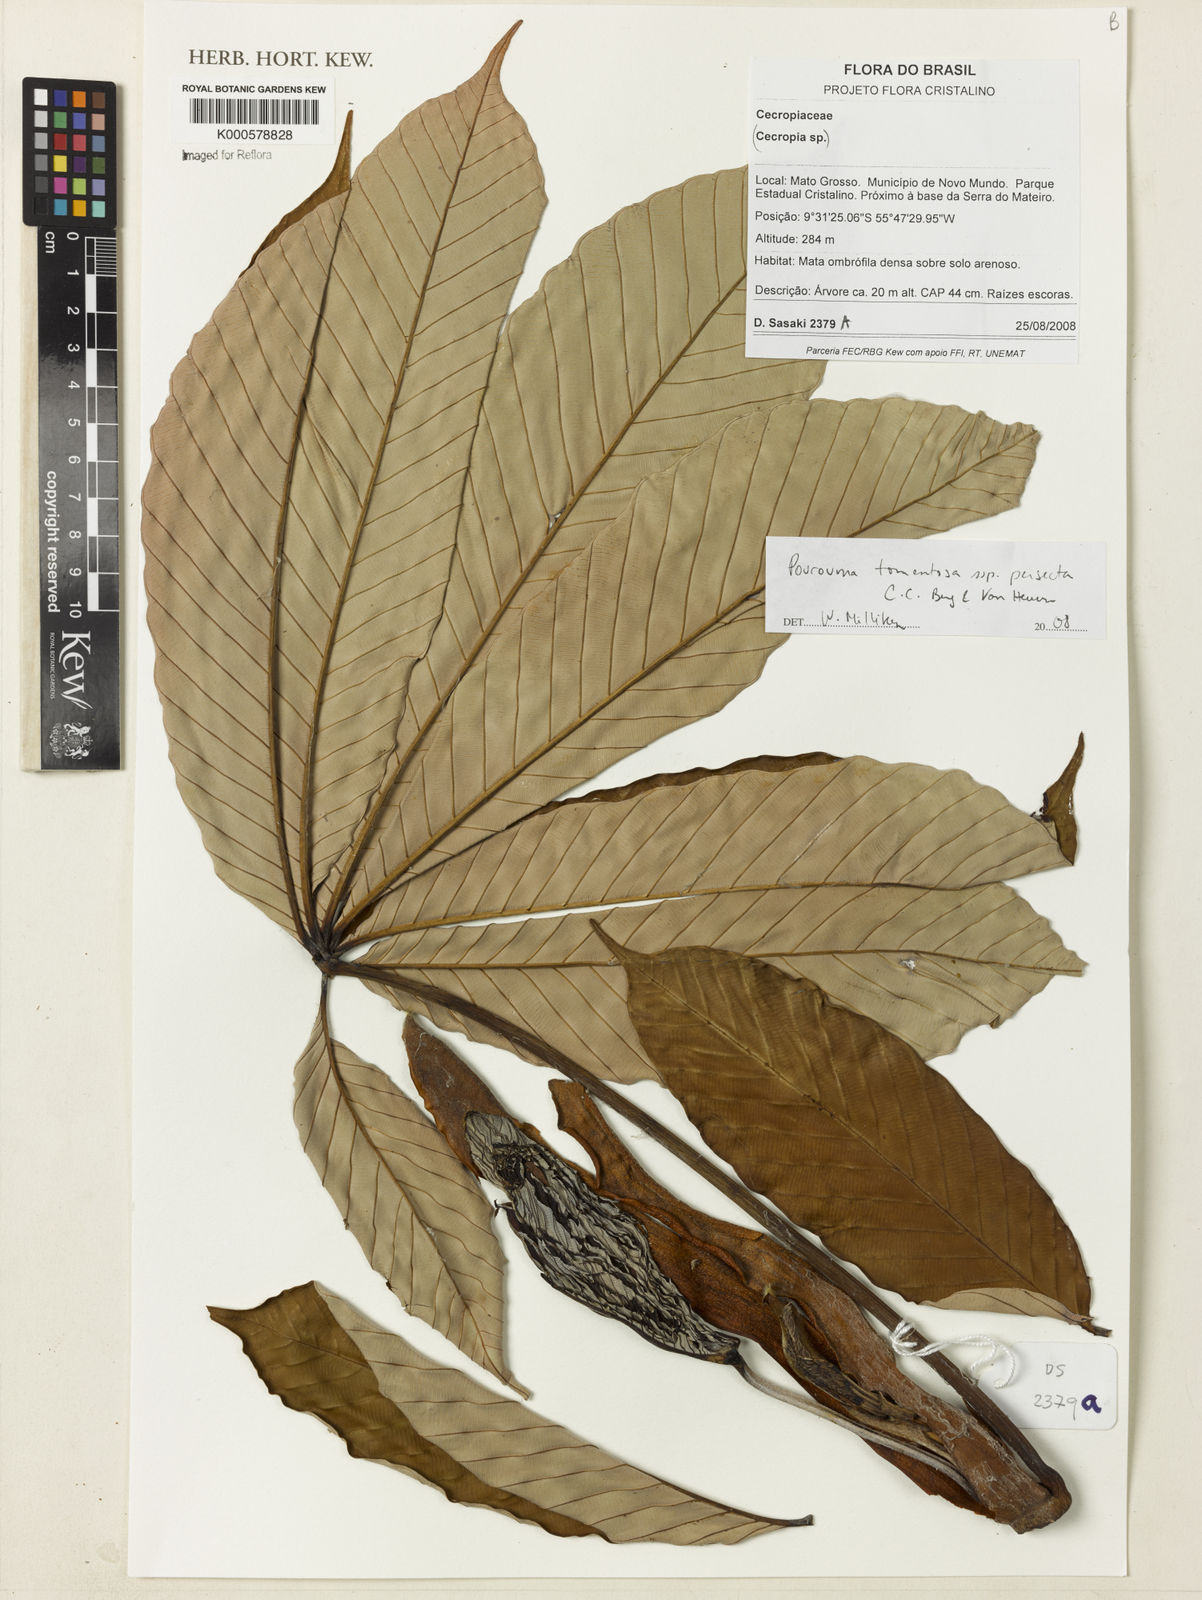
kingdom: Plantae
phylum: Tracheophyta
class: Magnoliopsida
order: Rosales
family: Urticaceae
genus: Pourouma
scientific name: Pourouma tomentosa
